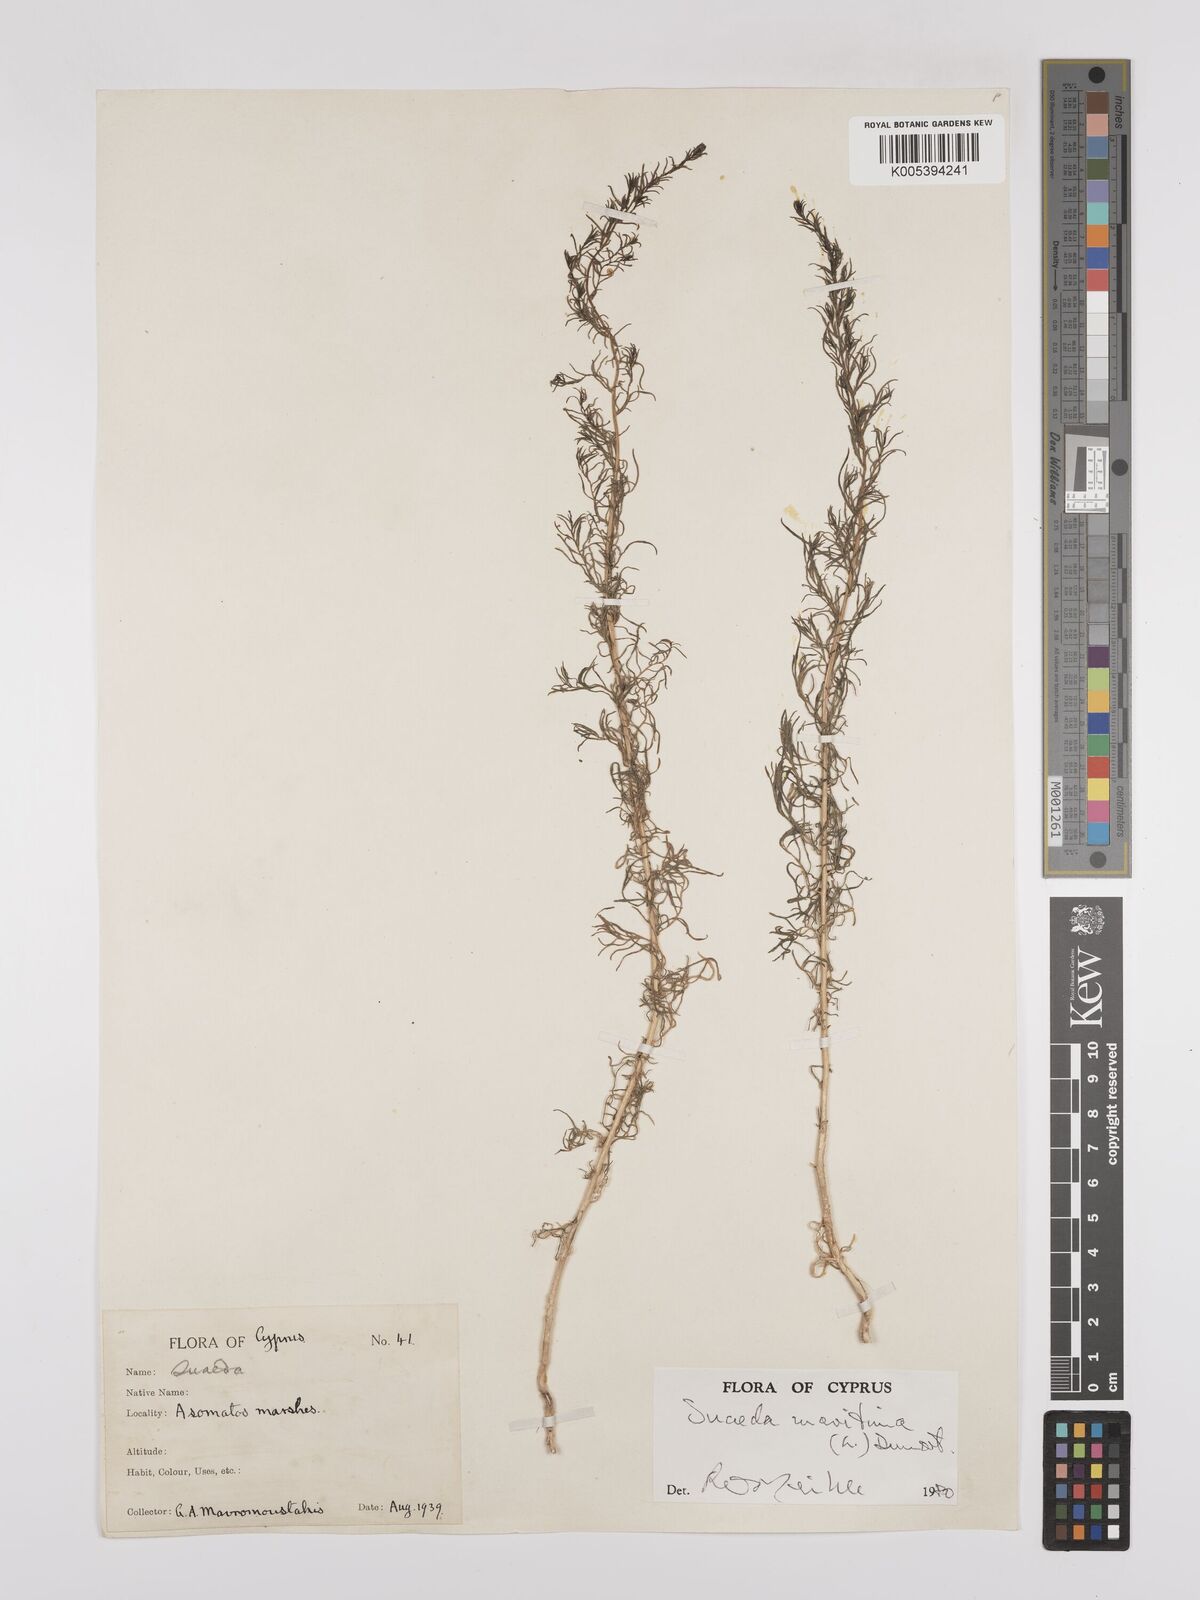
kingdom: Plantae
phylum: Tracheophyta
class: Magnoliopsida
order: Caryophyllales
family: Amaranthaceae
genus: Suaeda
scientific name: Suaeda
